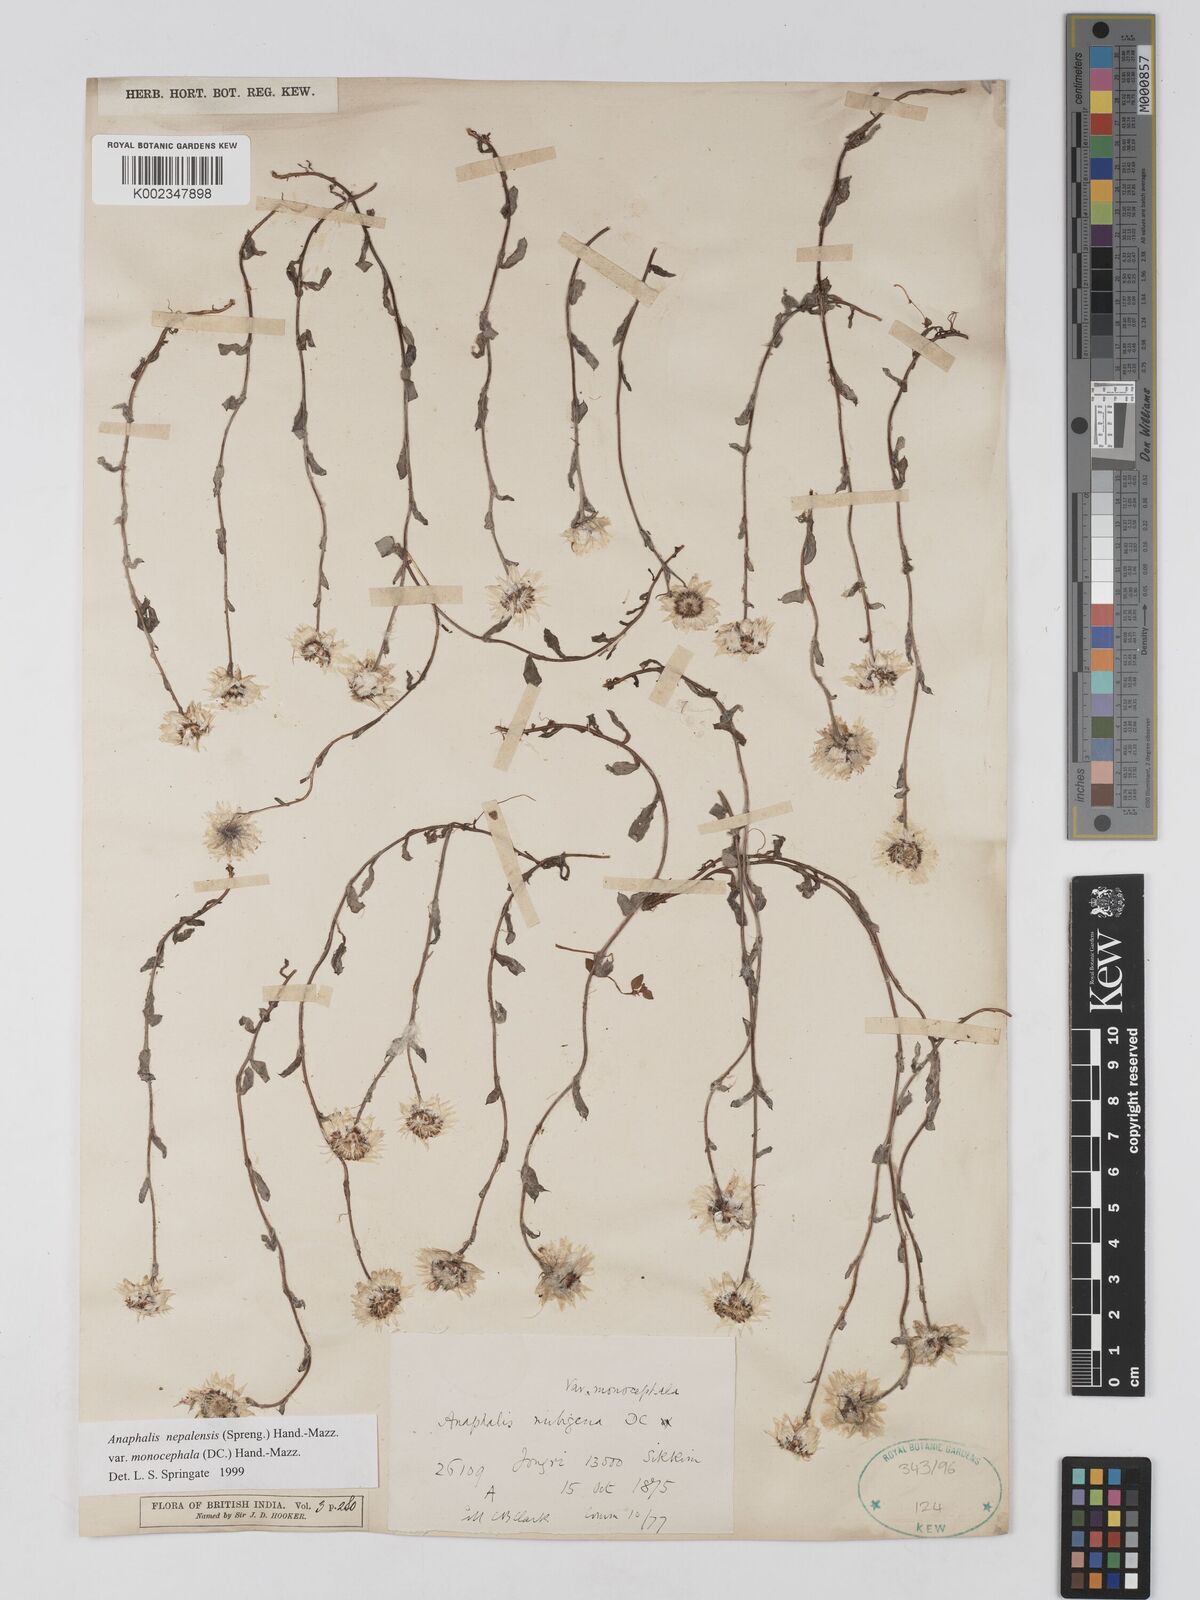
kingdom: Plantae
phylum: Tracheophyta
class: Magnoliopsida
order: Asterales
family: Asteraceae
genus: Anaphalis
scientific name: Anaphalis nepalensis
